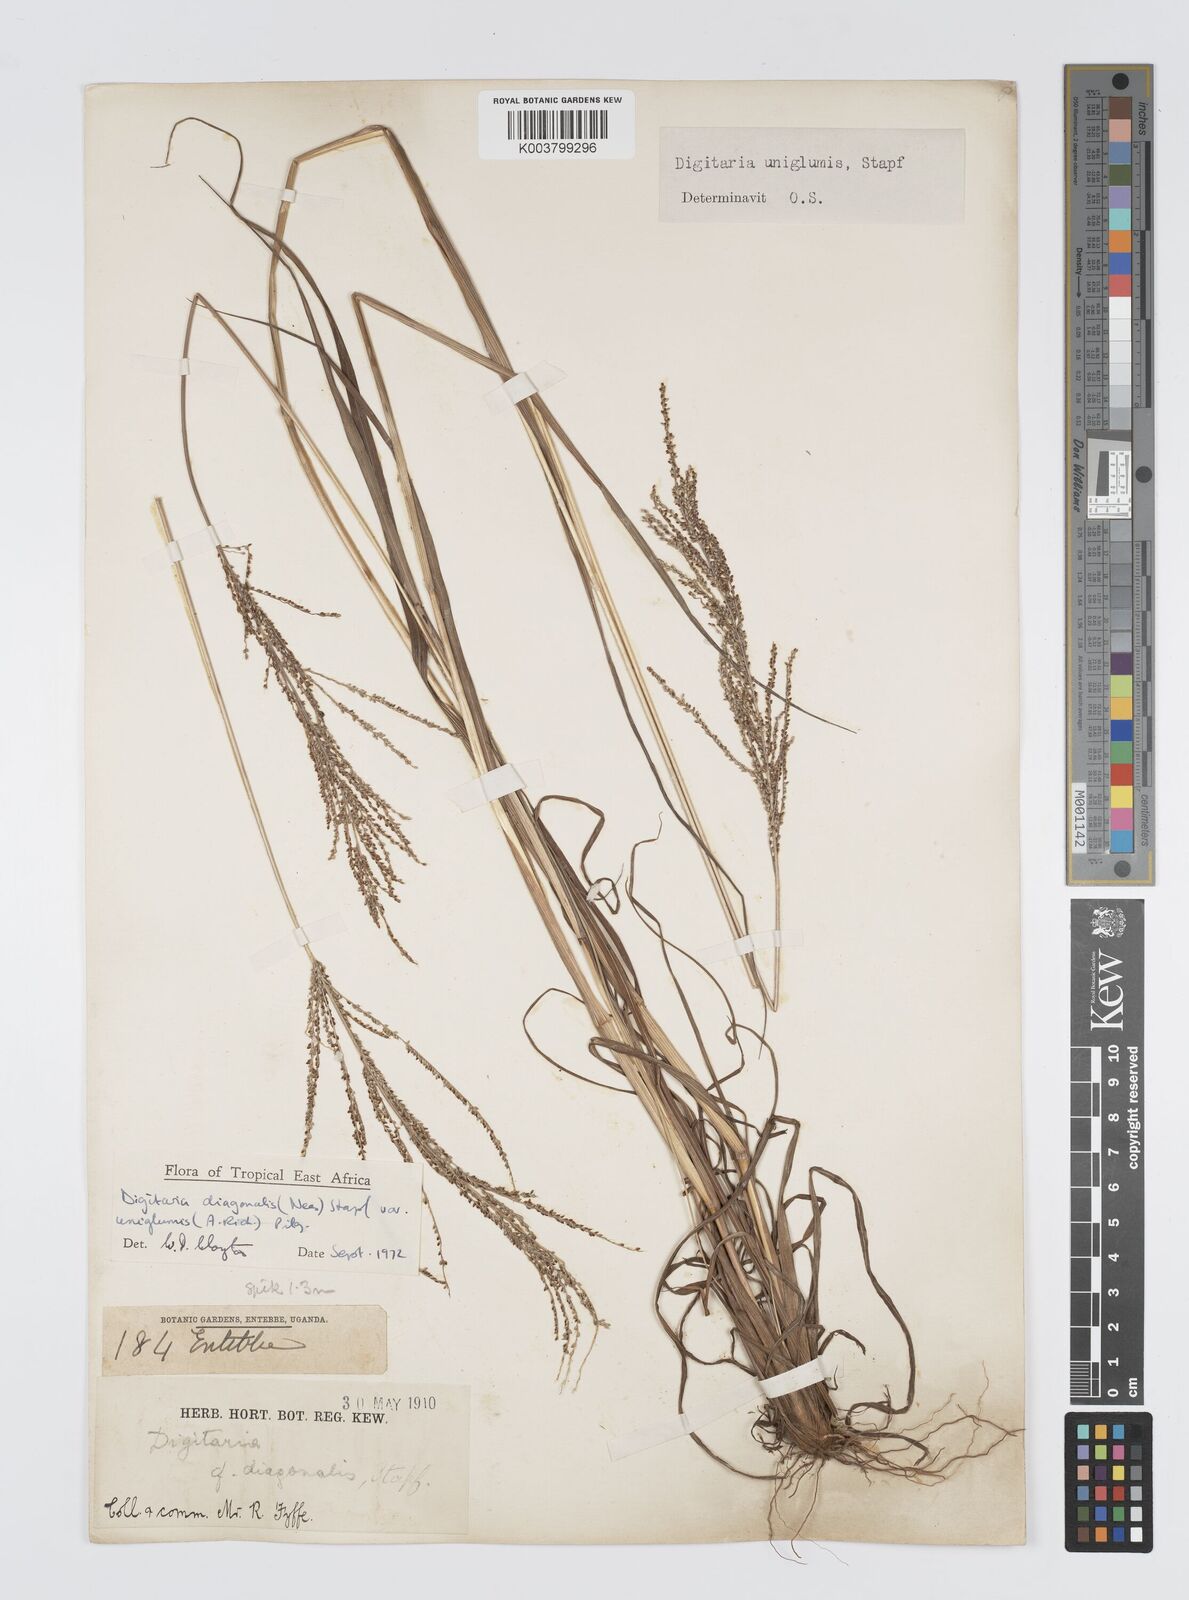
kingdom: Plantae
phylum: Tracheophyta
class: Liliopsida
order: Poales
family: Poaceae
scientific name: Poaceae
